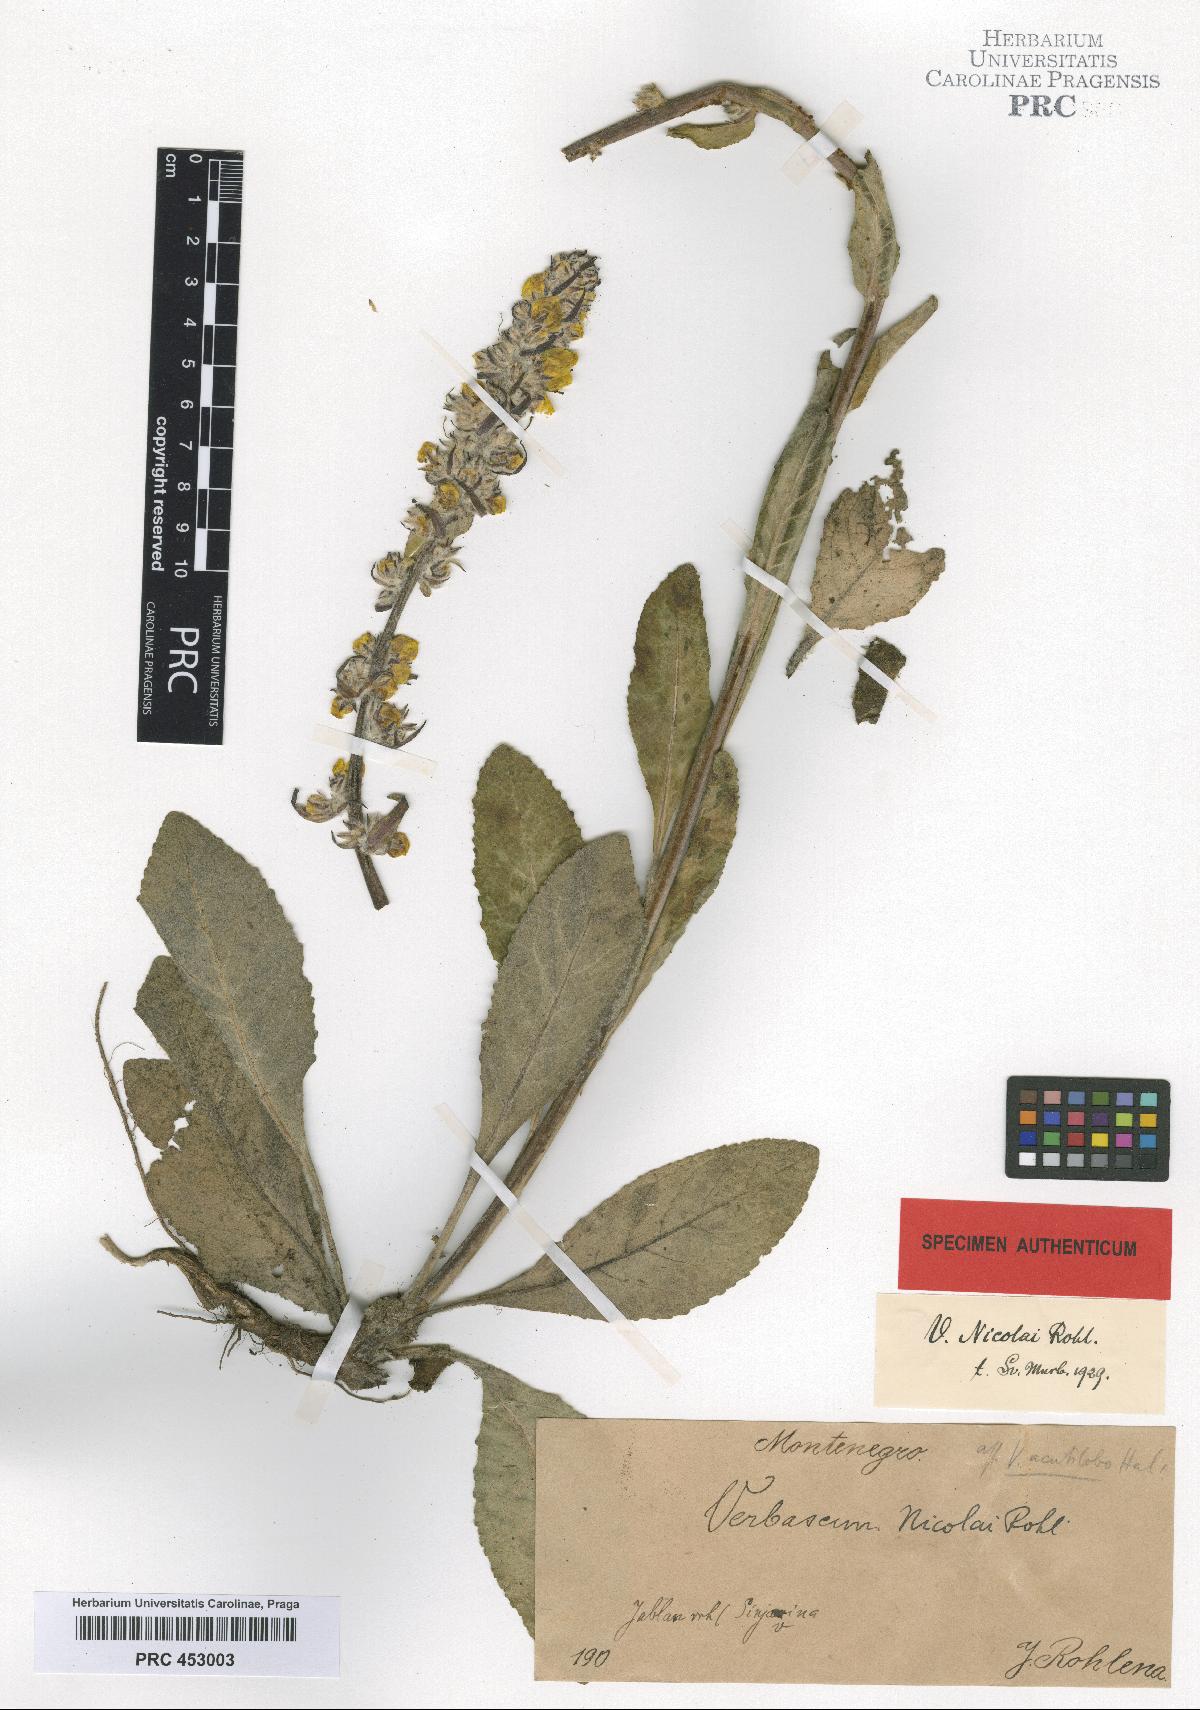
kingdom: Plantae
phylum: Tracheophyta
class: Magnoliopsida
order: Lamiales
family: Scrophulariaceae
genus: Verbascum
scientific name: Verbascum nicolai
